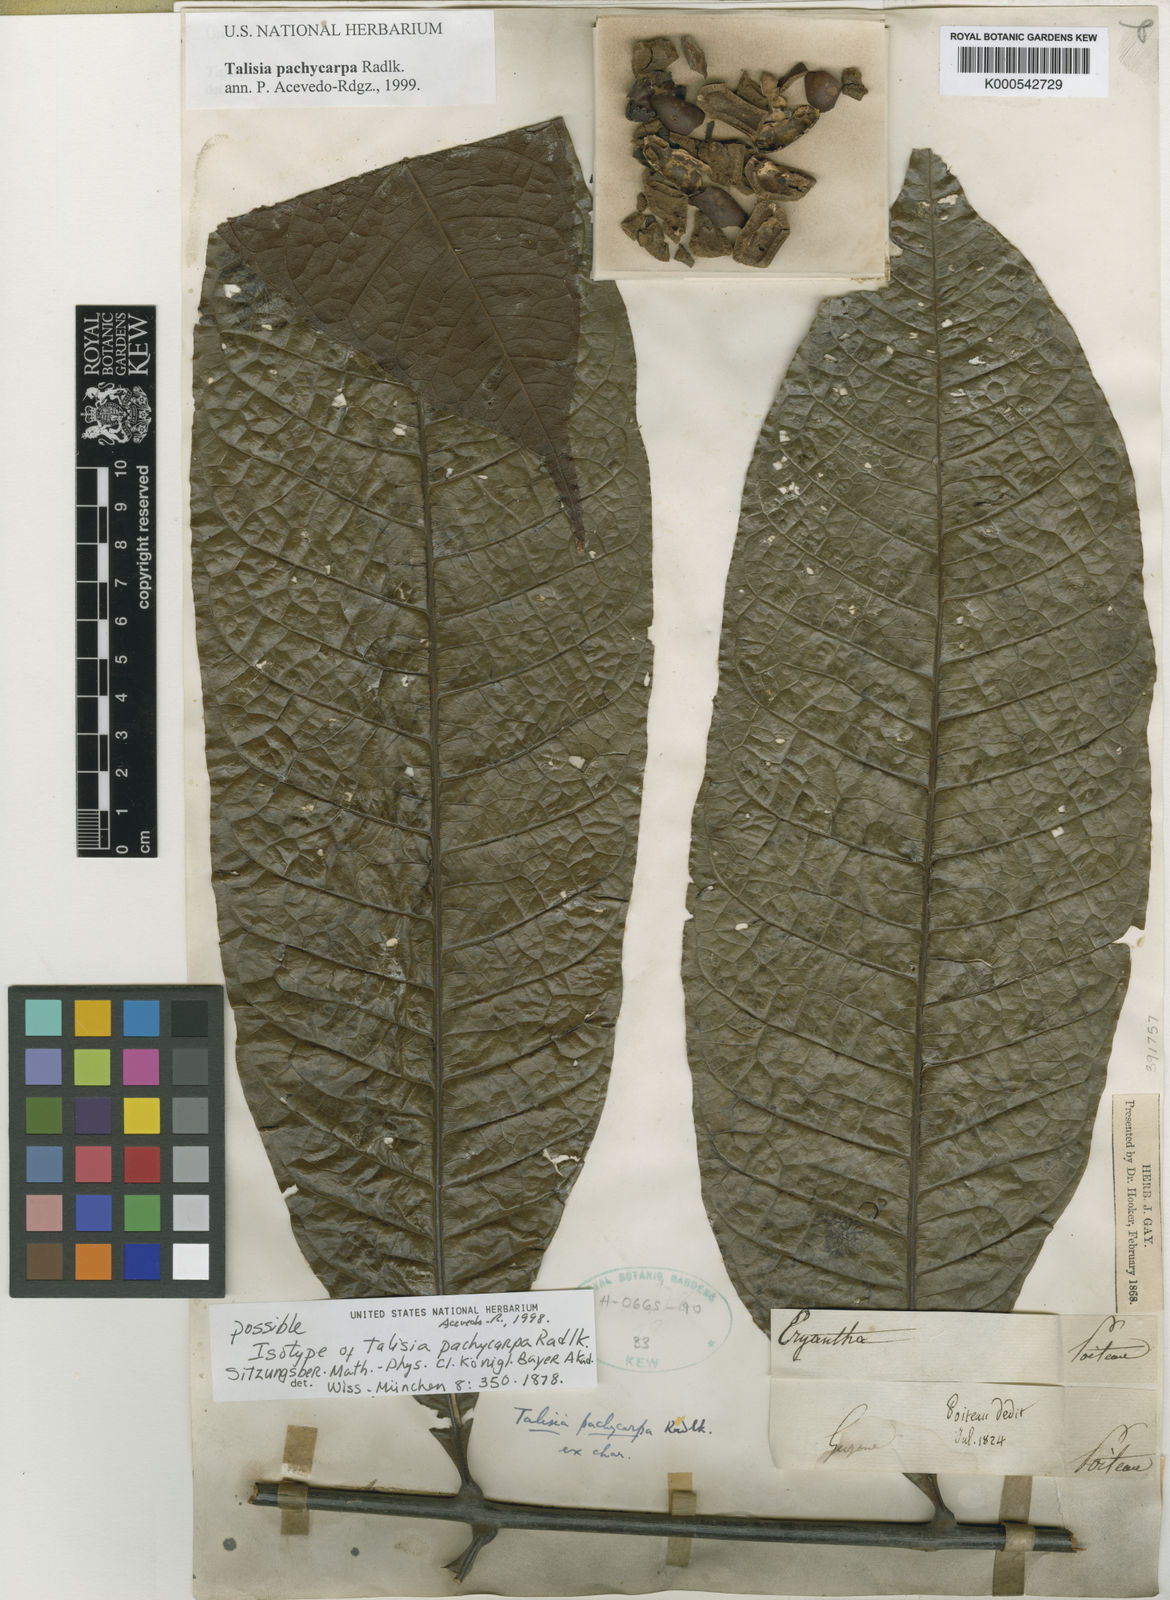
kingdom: Plantae
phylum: Tracheophyta
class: Magnoliopsida
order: Sapindales
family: Sapindaceae
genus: Talisia
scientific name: Talisia pachycarpa
